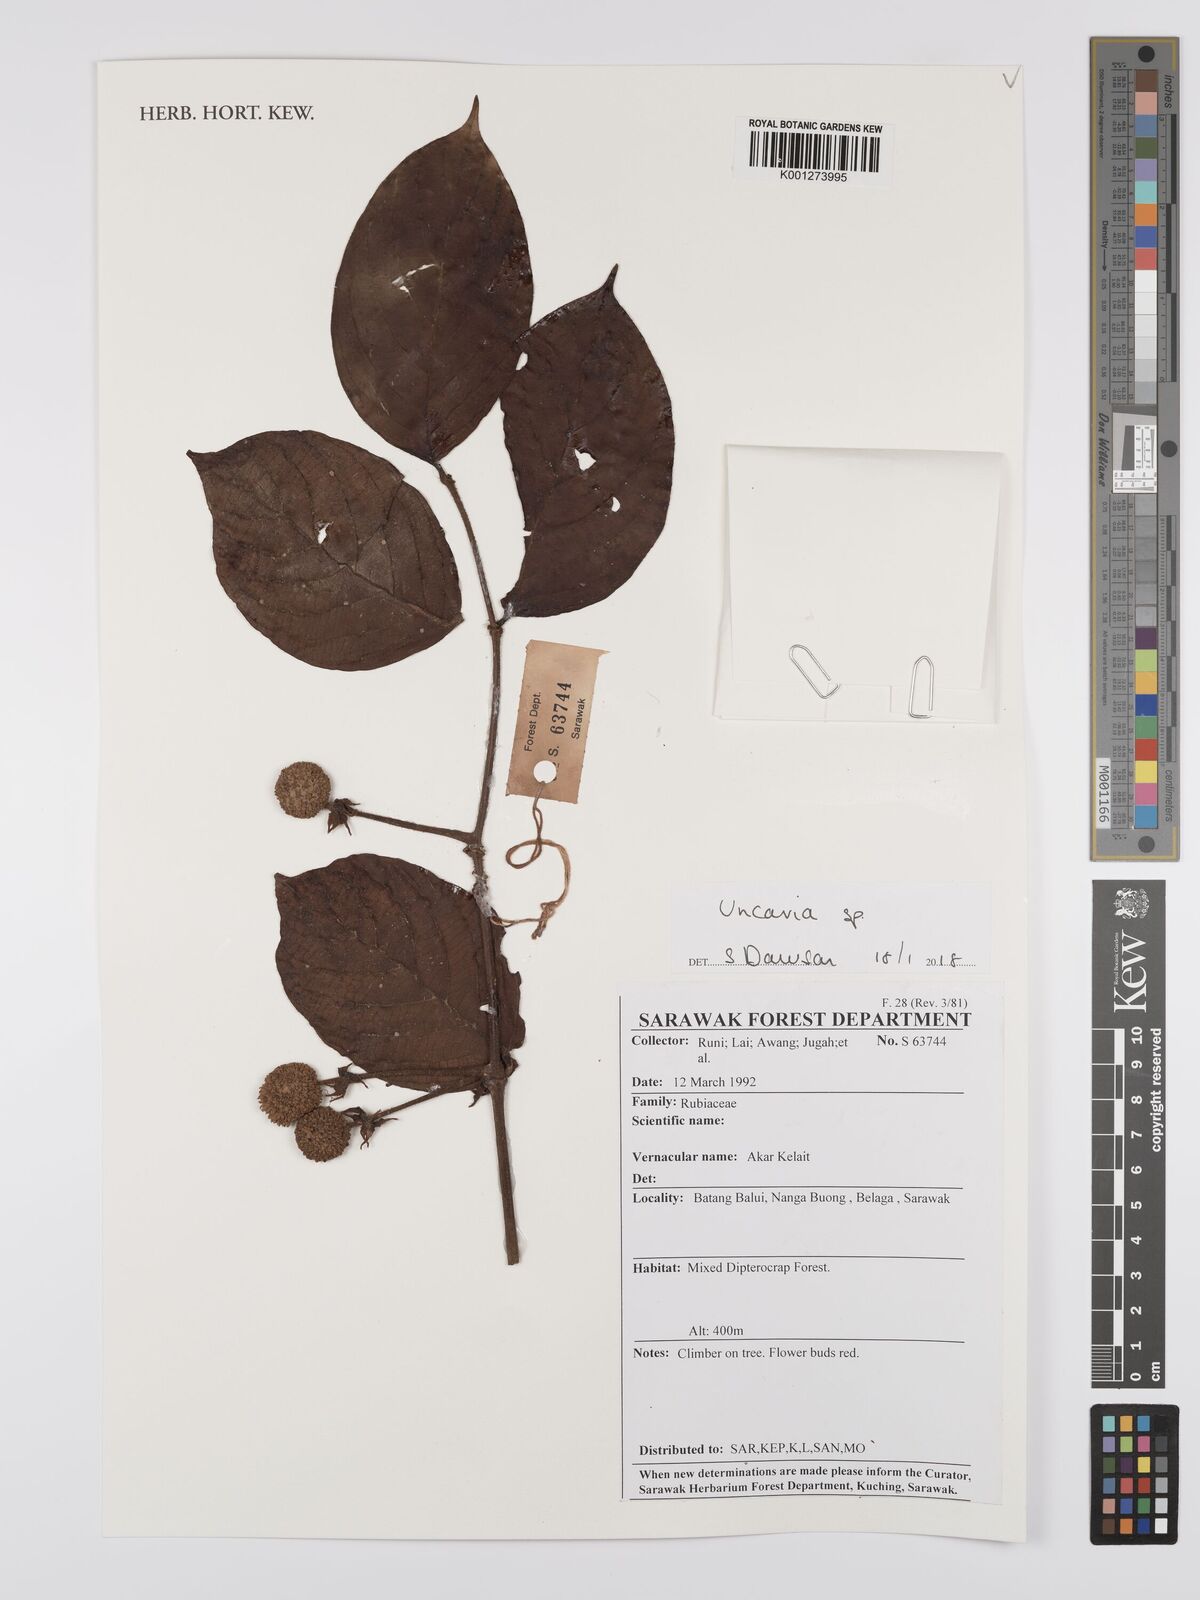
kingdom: Plantae
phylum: Tracheophyta
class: Magnoliopsida
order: Gentianales
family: Rubiaceae
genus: Uncaria
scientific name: Uncaria
